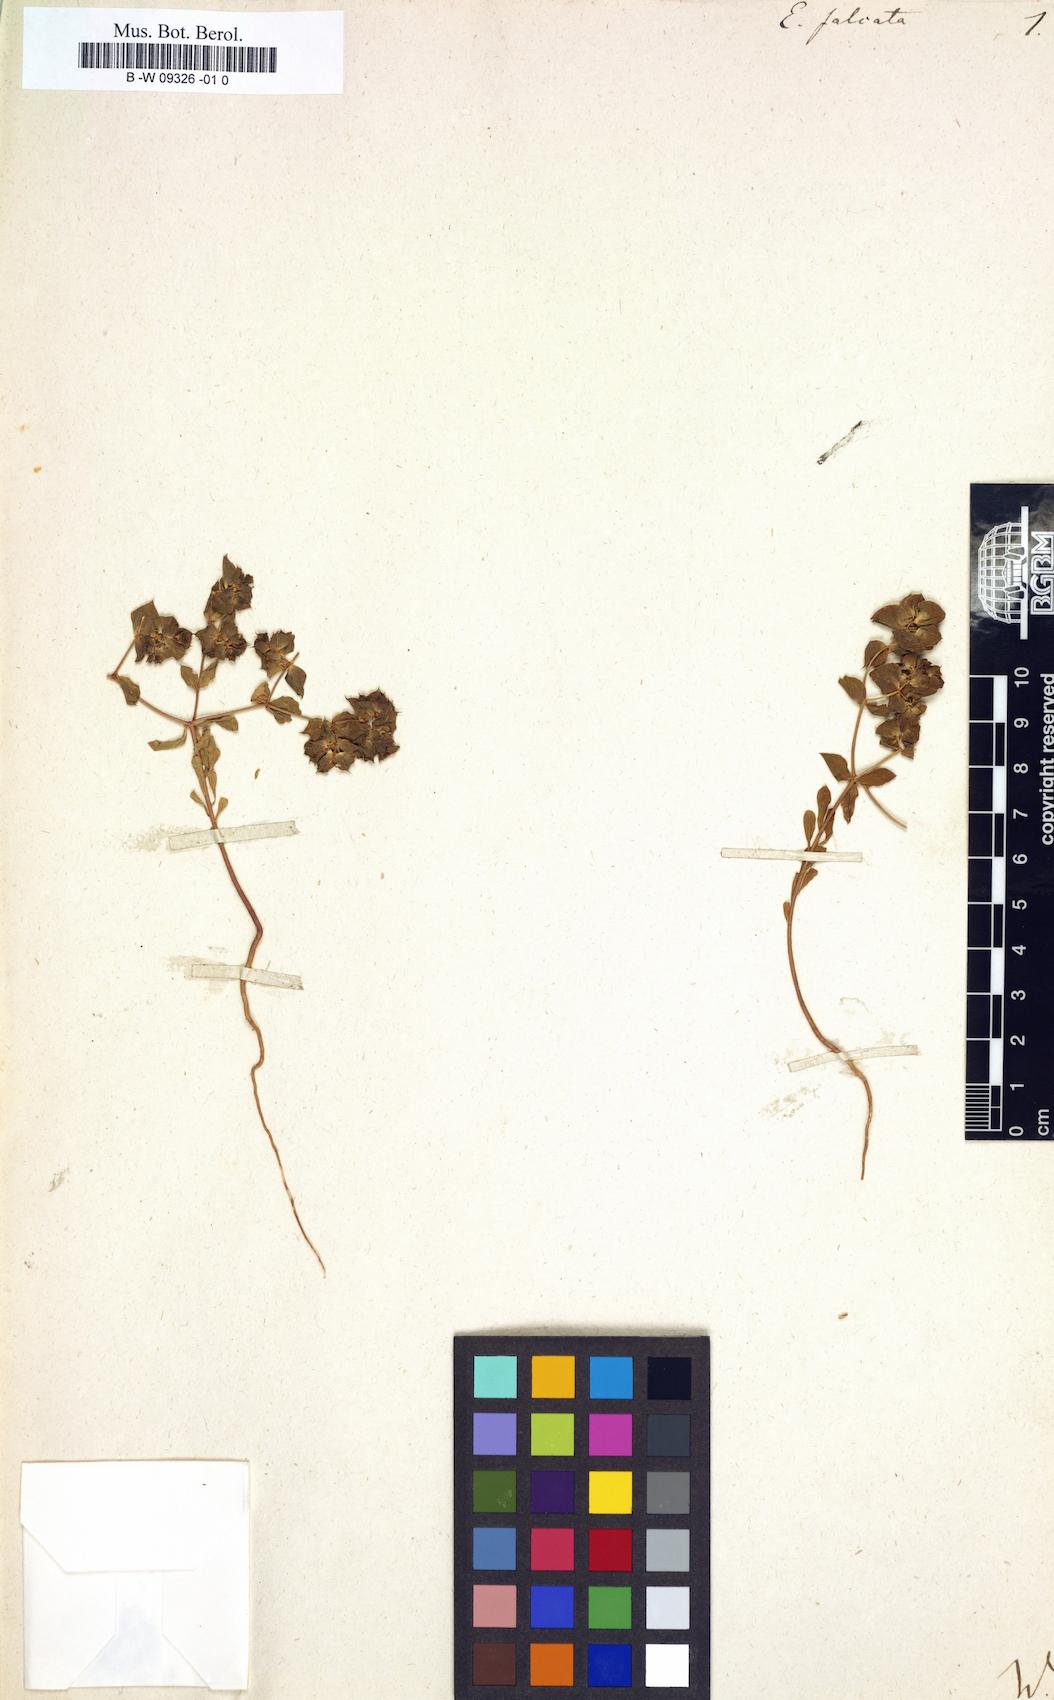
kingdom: Plantae
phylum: Tracheophyta
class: Magnoliopsida
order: Malpighiales
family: Euphorbiaceae
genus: Euphorbia
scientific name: Euphorbia falcata
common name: Sickle spurge
